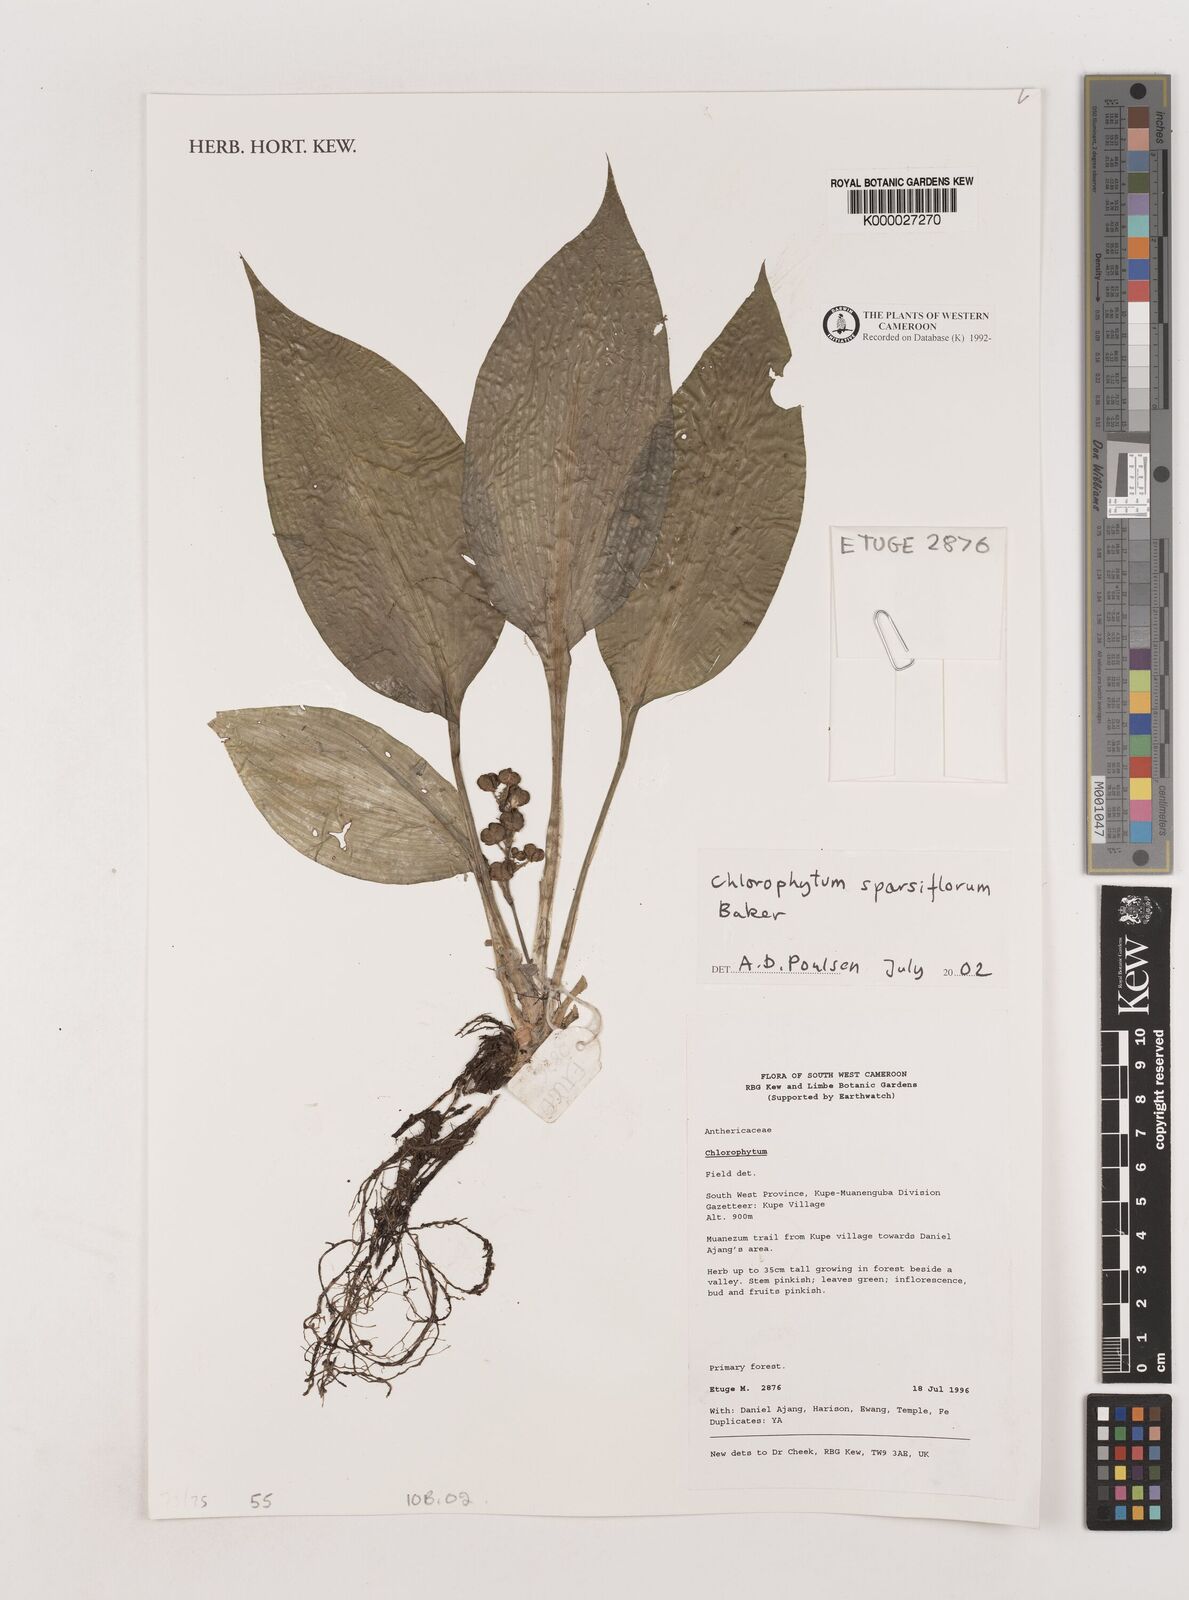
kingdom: Plantae
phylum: Tracheophyta
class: Liliopsida
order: Asparagales
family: Asparagaceae
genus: Chlorophytum
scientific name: Chlorophytum sparsiflorum
